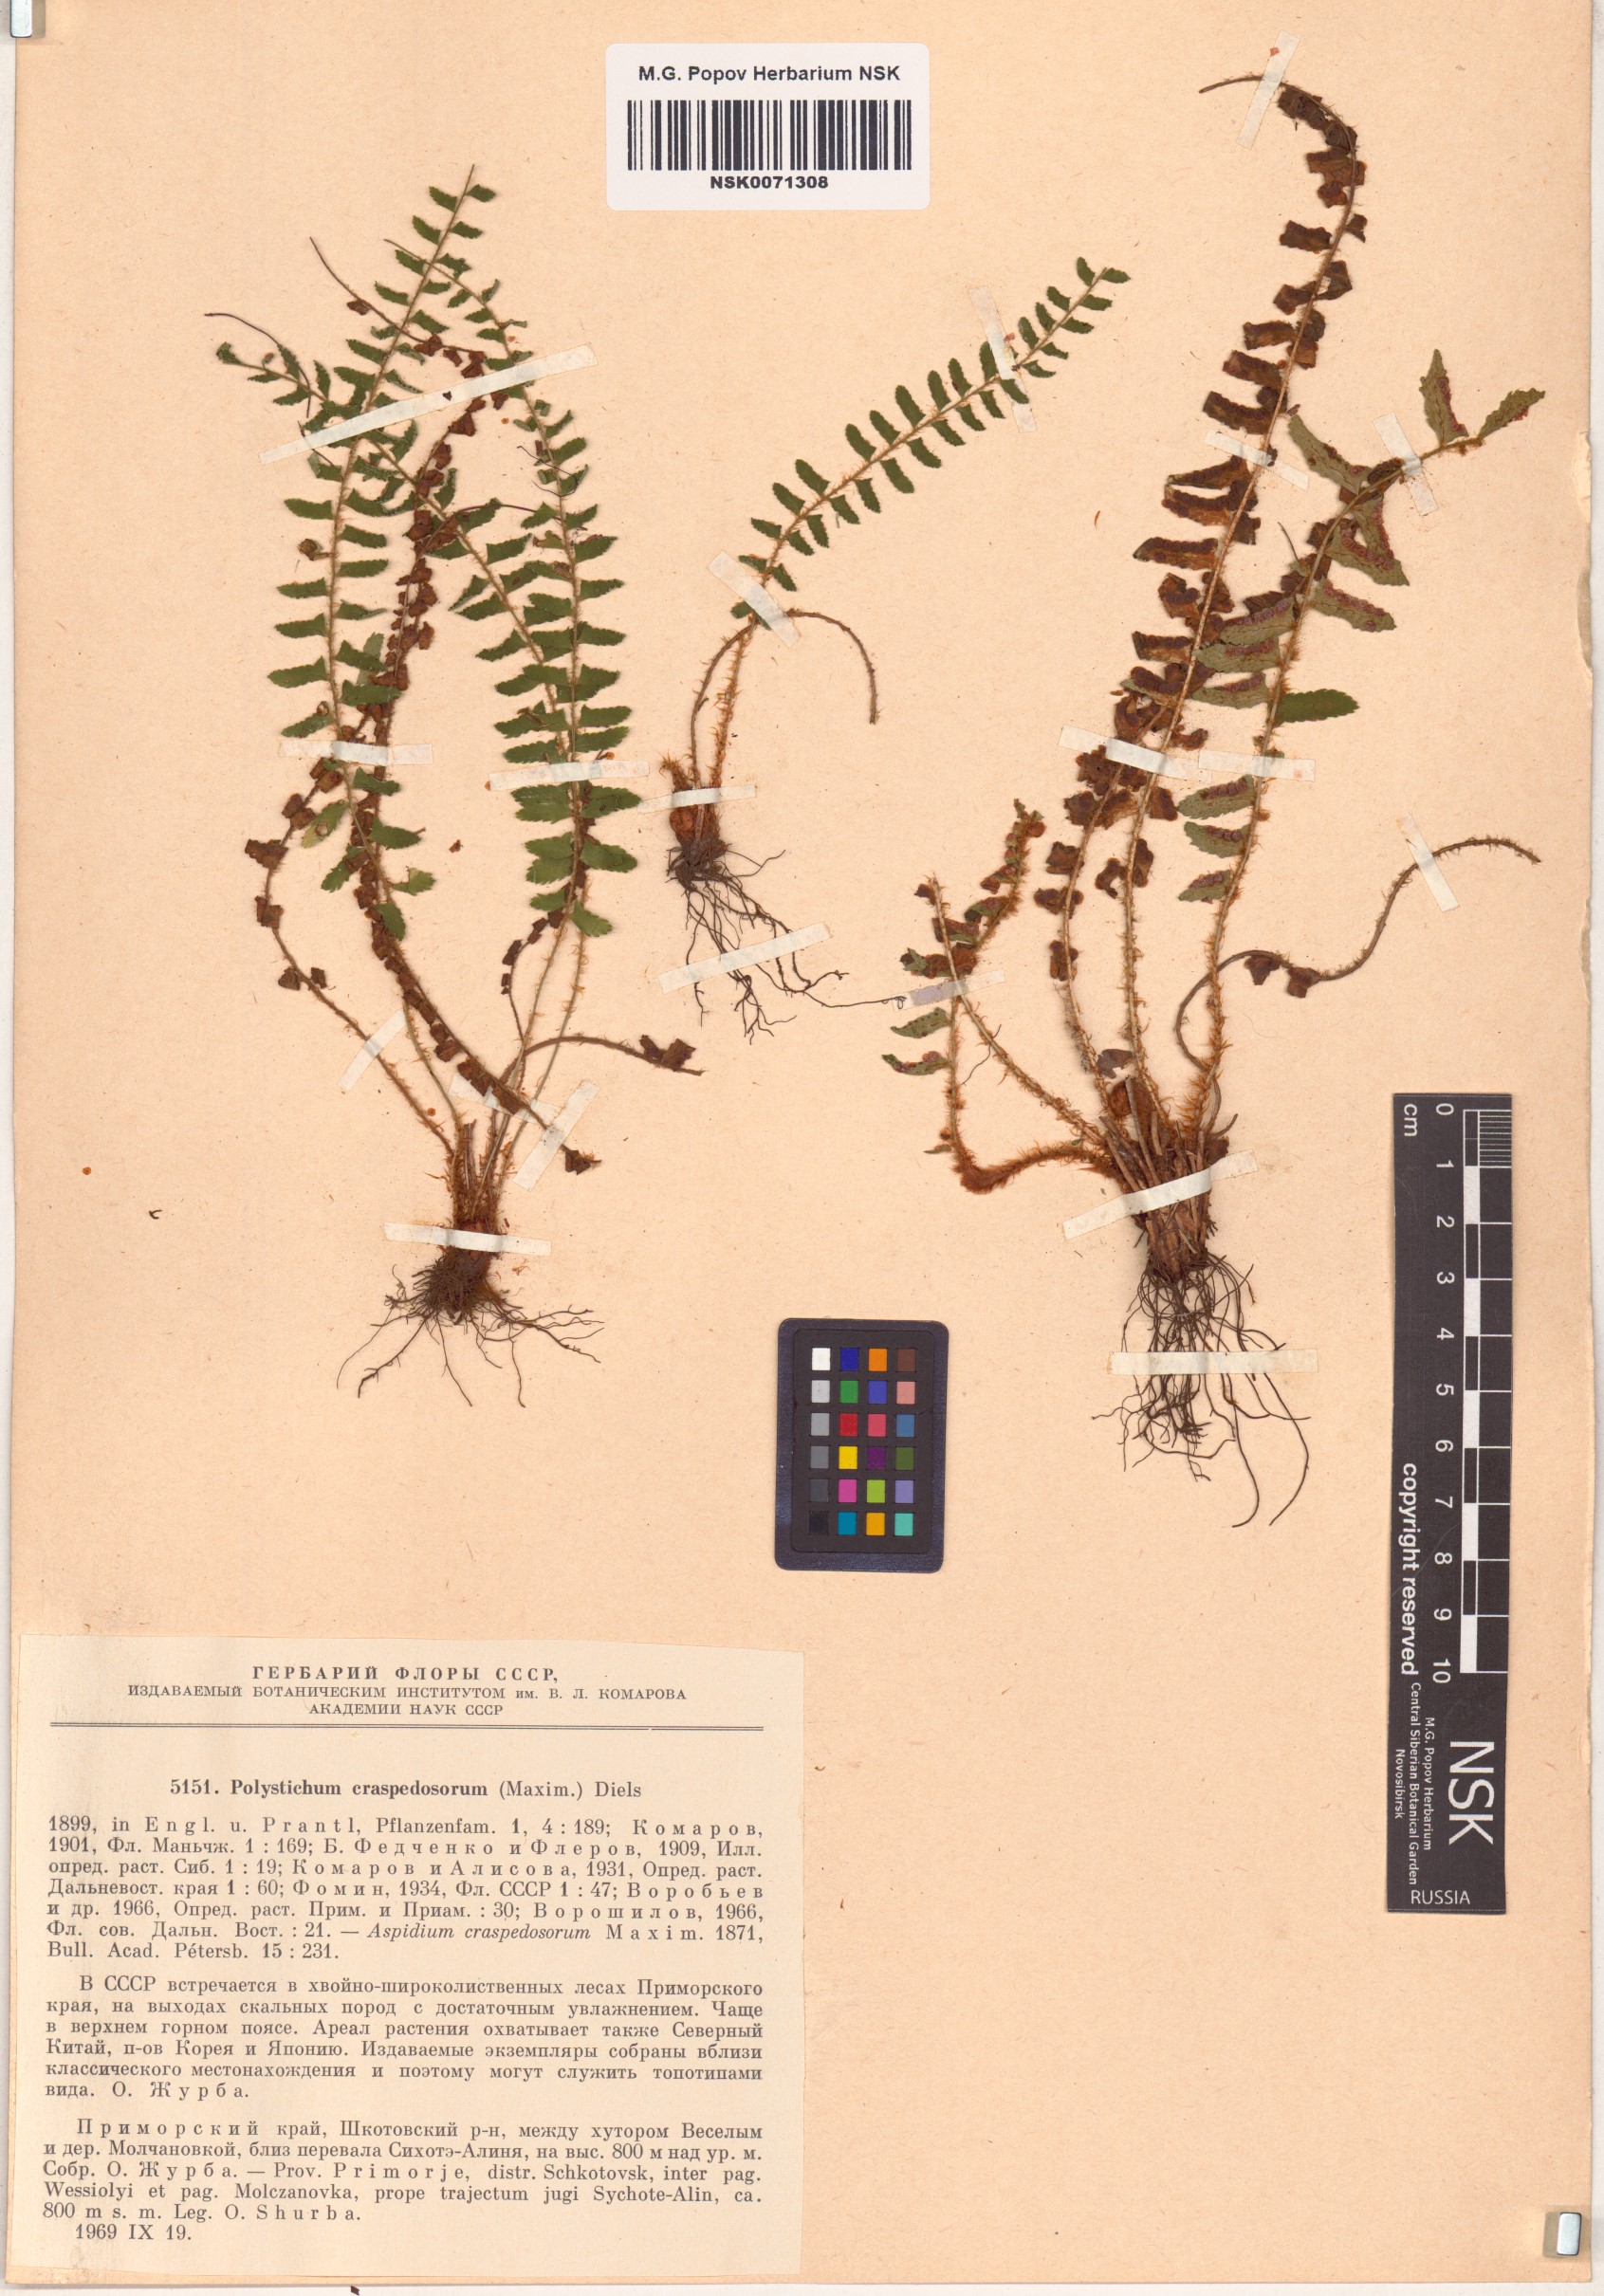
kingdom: Plantae
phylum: Tracheophyta
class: Polypodiopsida
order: Polypodiales
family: Dryopteridaceae
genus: Polystichum
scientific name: Polystichum craspedosorum
